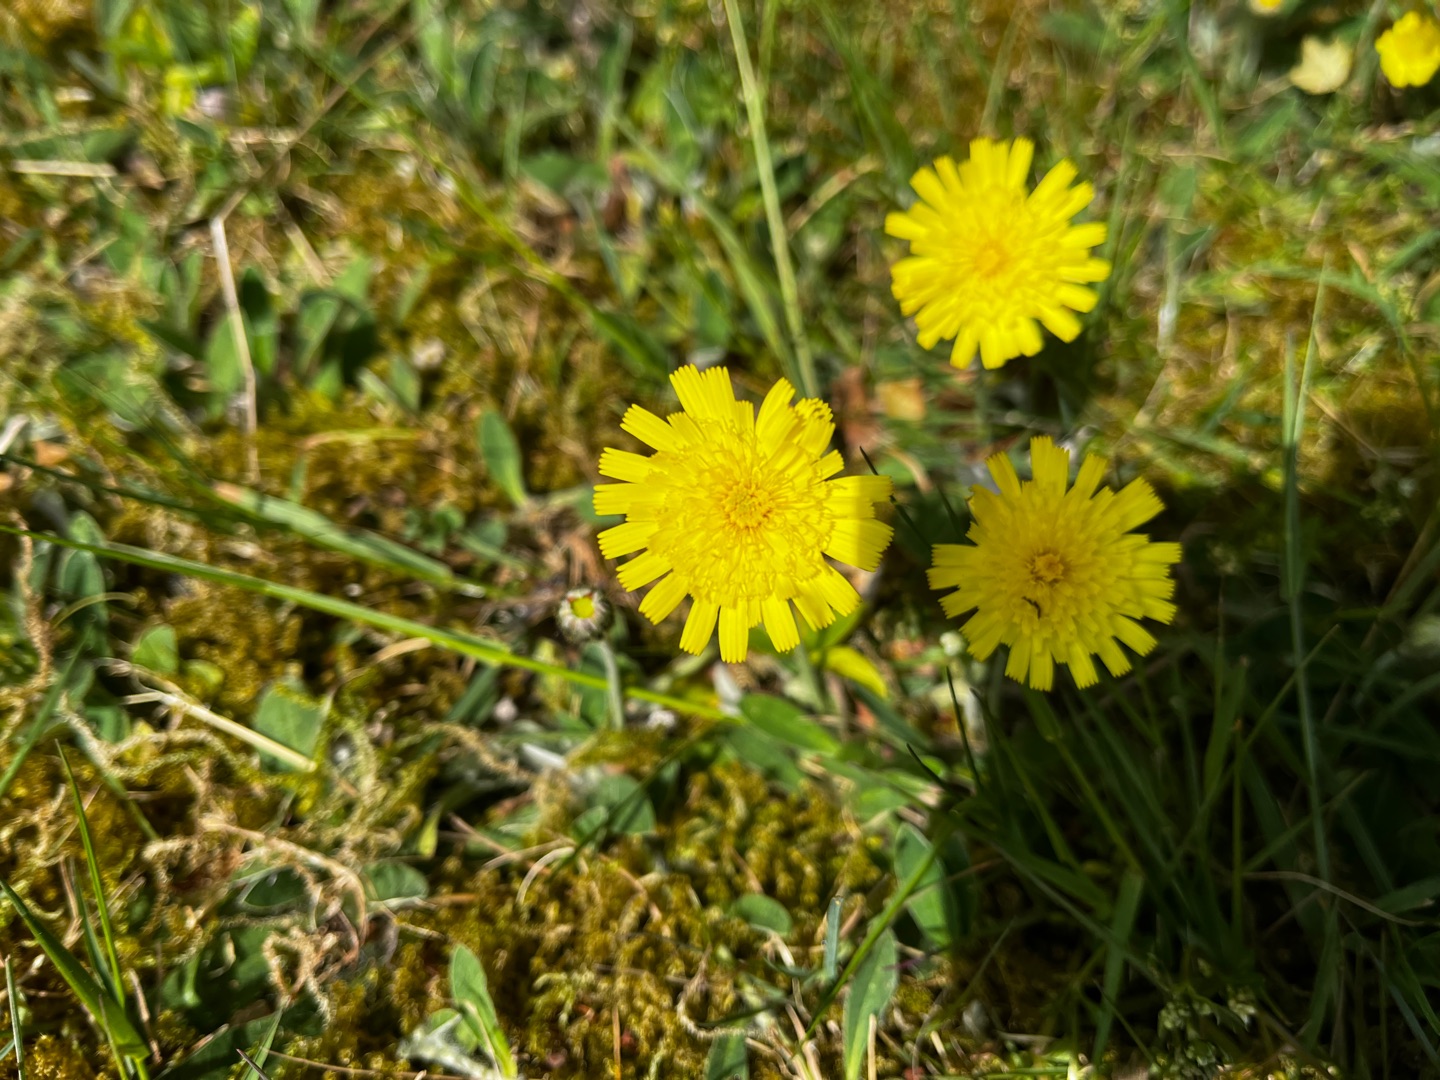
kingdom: Plantae
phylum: Tracheophyta
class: Magnoliopsida
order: Asterales
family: Asteraceae
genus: Pilosella
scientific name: Pilosella officinarum
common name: Håret høgeurt
